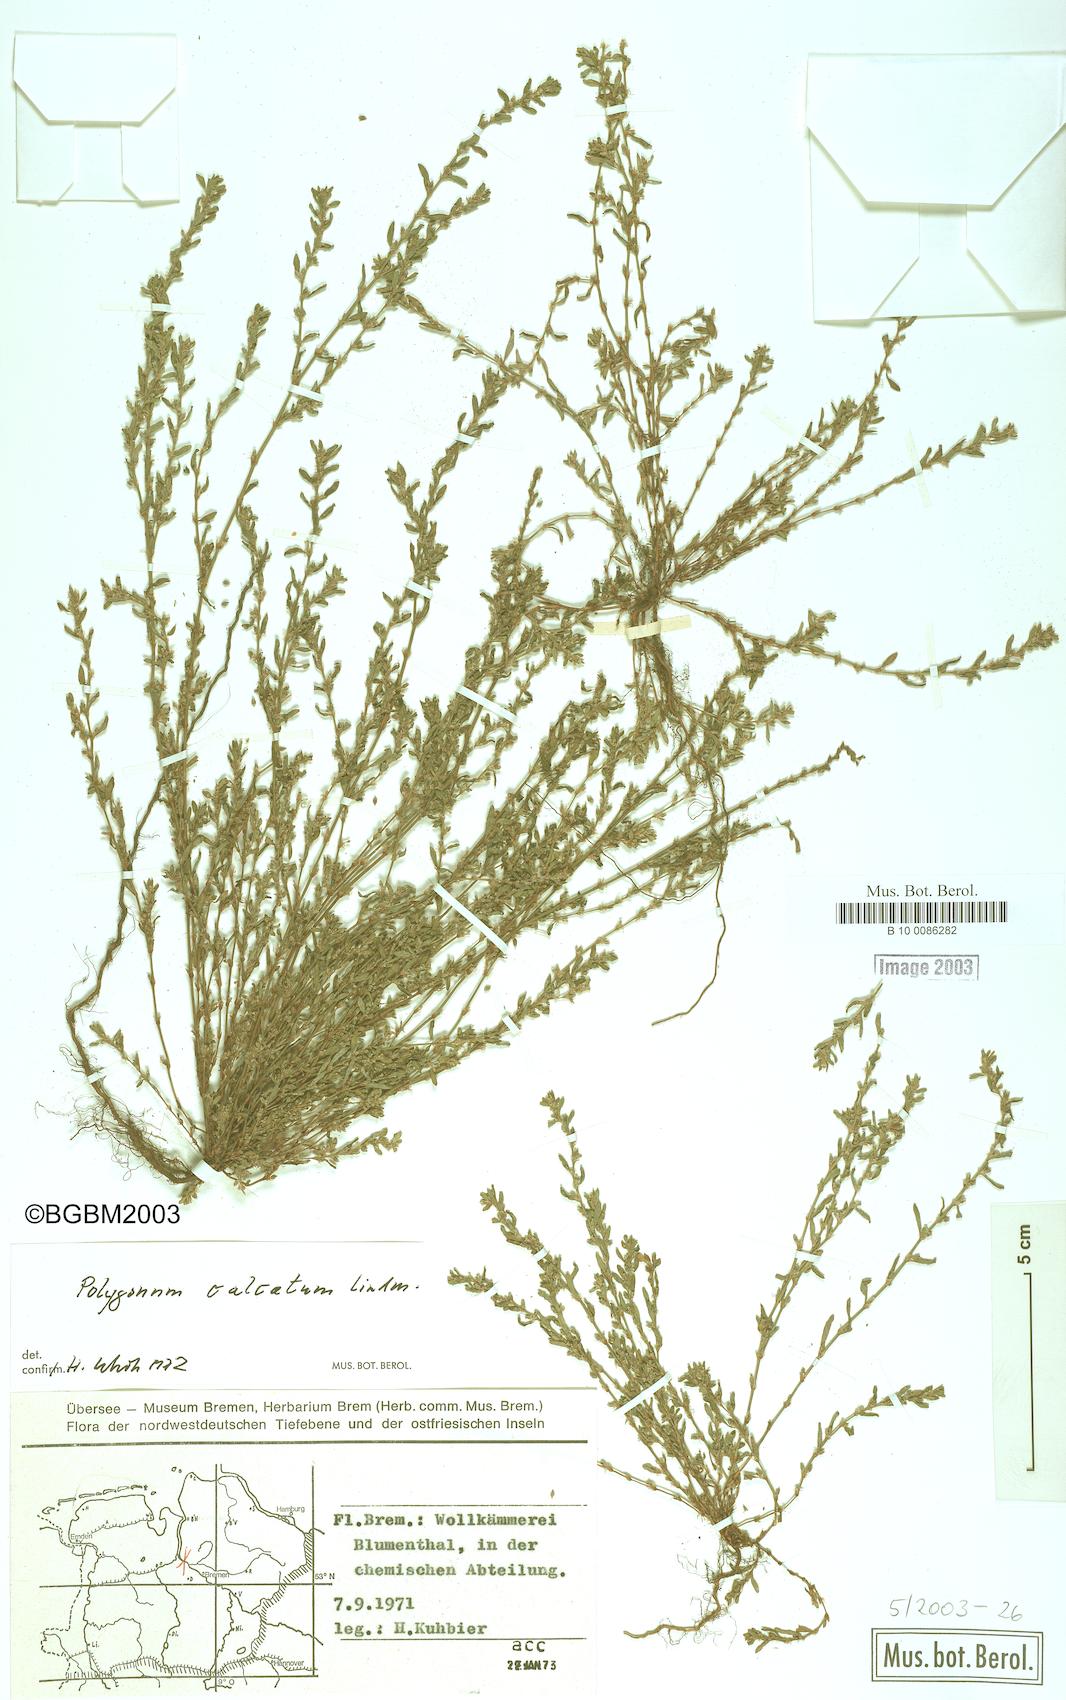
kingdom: Plantae
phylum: Tracheophyta
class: Magnoliopsida
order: Caryophyllales
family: Polygonaceae
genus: Polygonum
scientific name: Polygonum arenastrum
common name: Equal-leaved knotgrass
